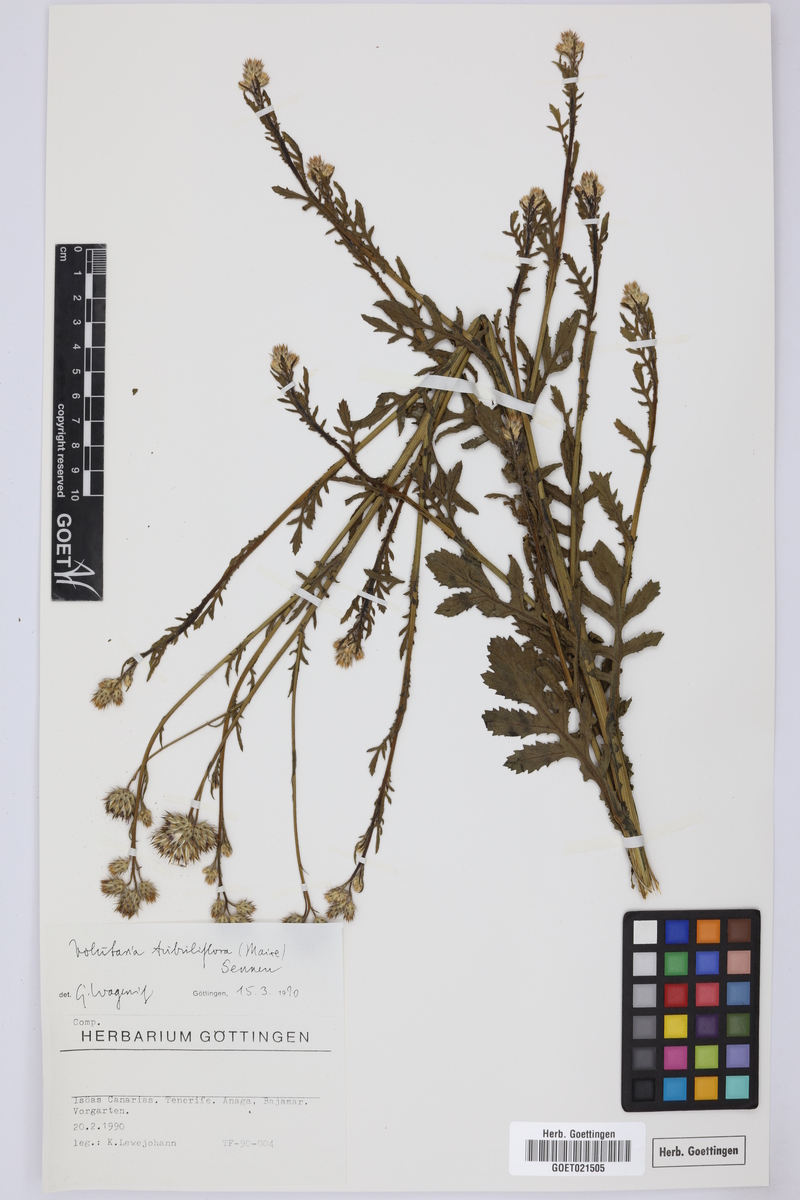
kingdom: Plantae
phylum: Tracheophyta
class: Magnoliopsida
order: Asterales
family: Asteraceae
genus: Volutaria
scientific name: Volutaria tubuliflora
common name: Desert knapweed
